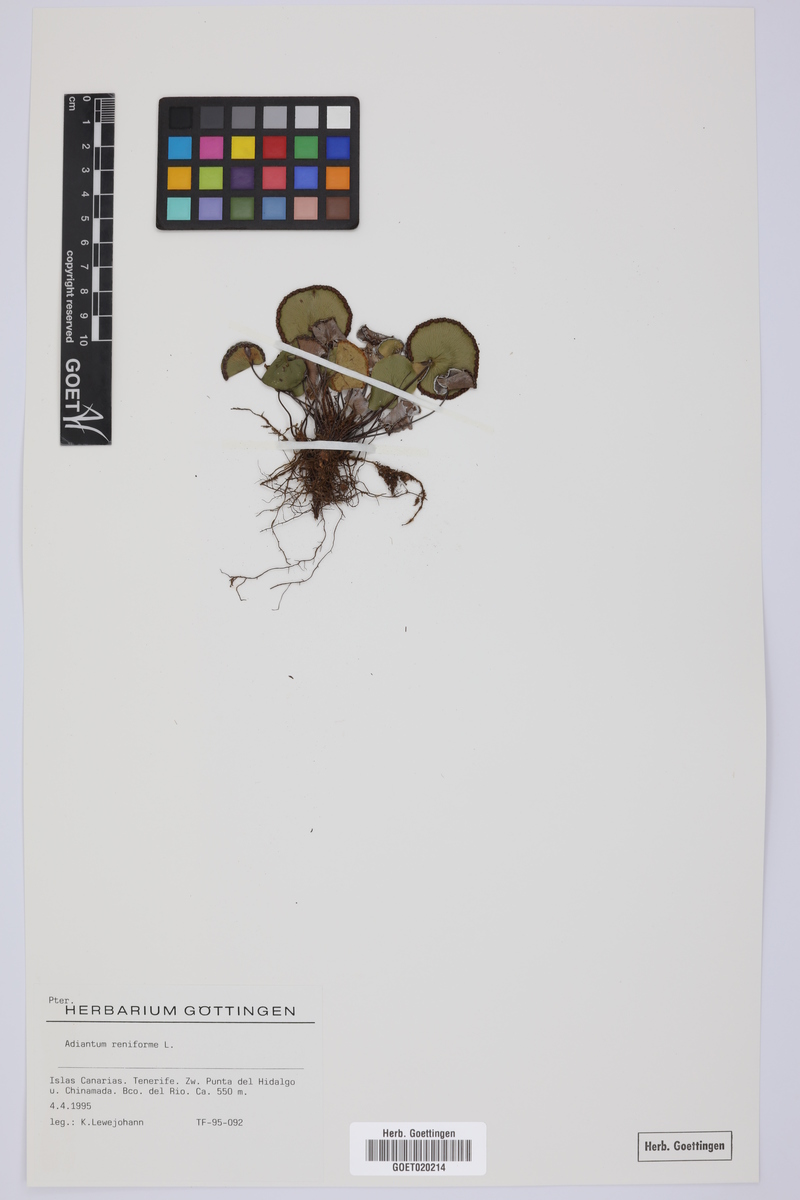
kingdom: Plantae
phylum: Tracheophyta
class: Polypodiopsida
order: Polypodiales
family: Pteridaceae
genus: Adiantum
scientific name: Adiantum reniforme
